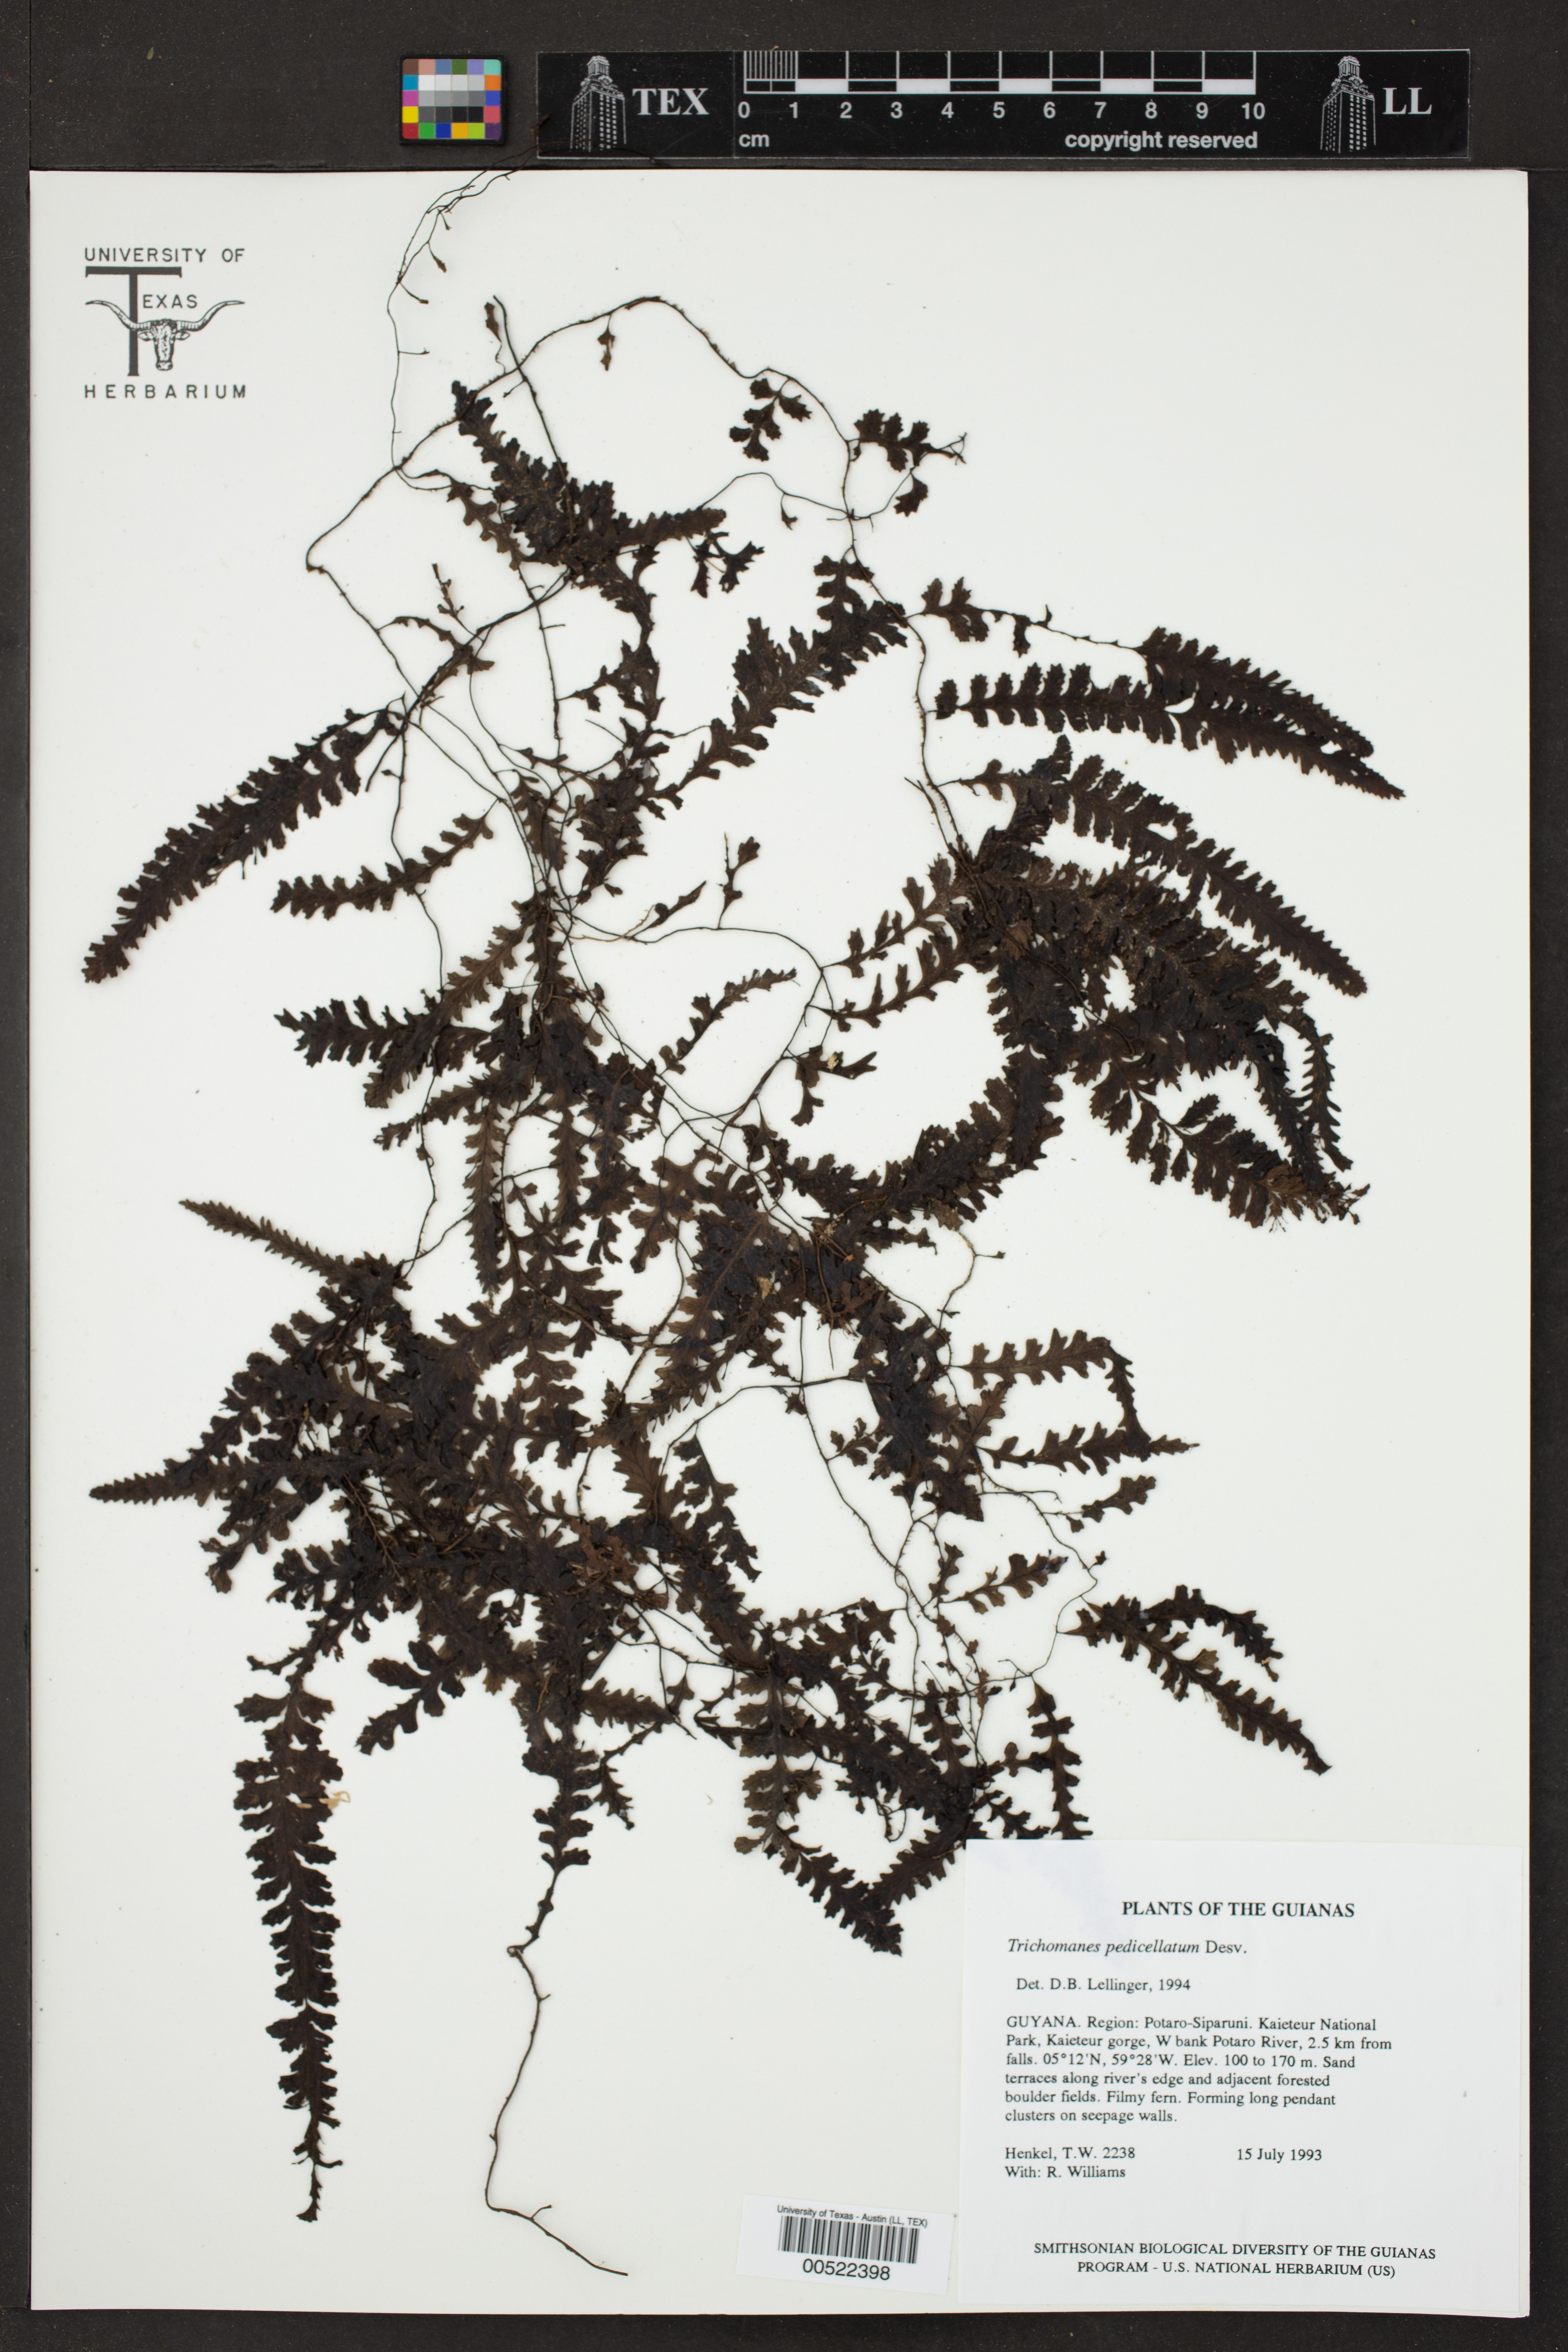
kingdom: Plantae
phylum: Tracheophyta
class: Polypodiopsida
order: Hymenophyllales
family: Hymenophyllaceae
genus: Trichomanes
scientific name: Trichomanes pedicellatum
